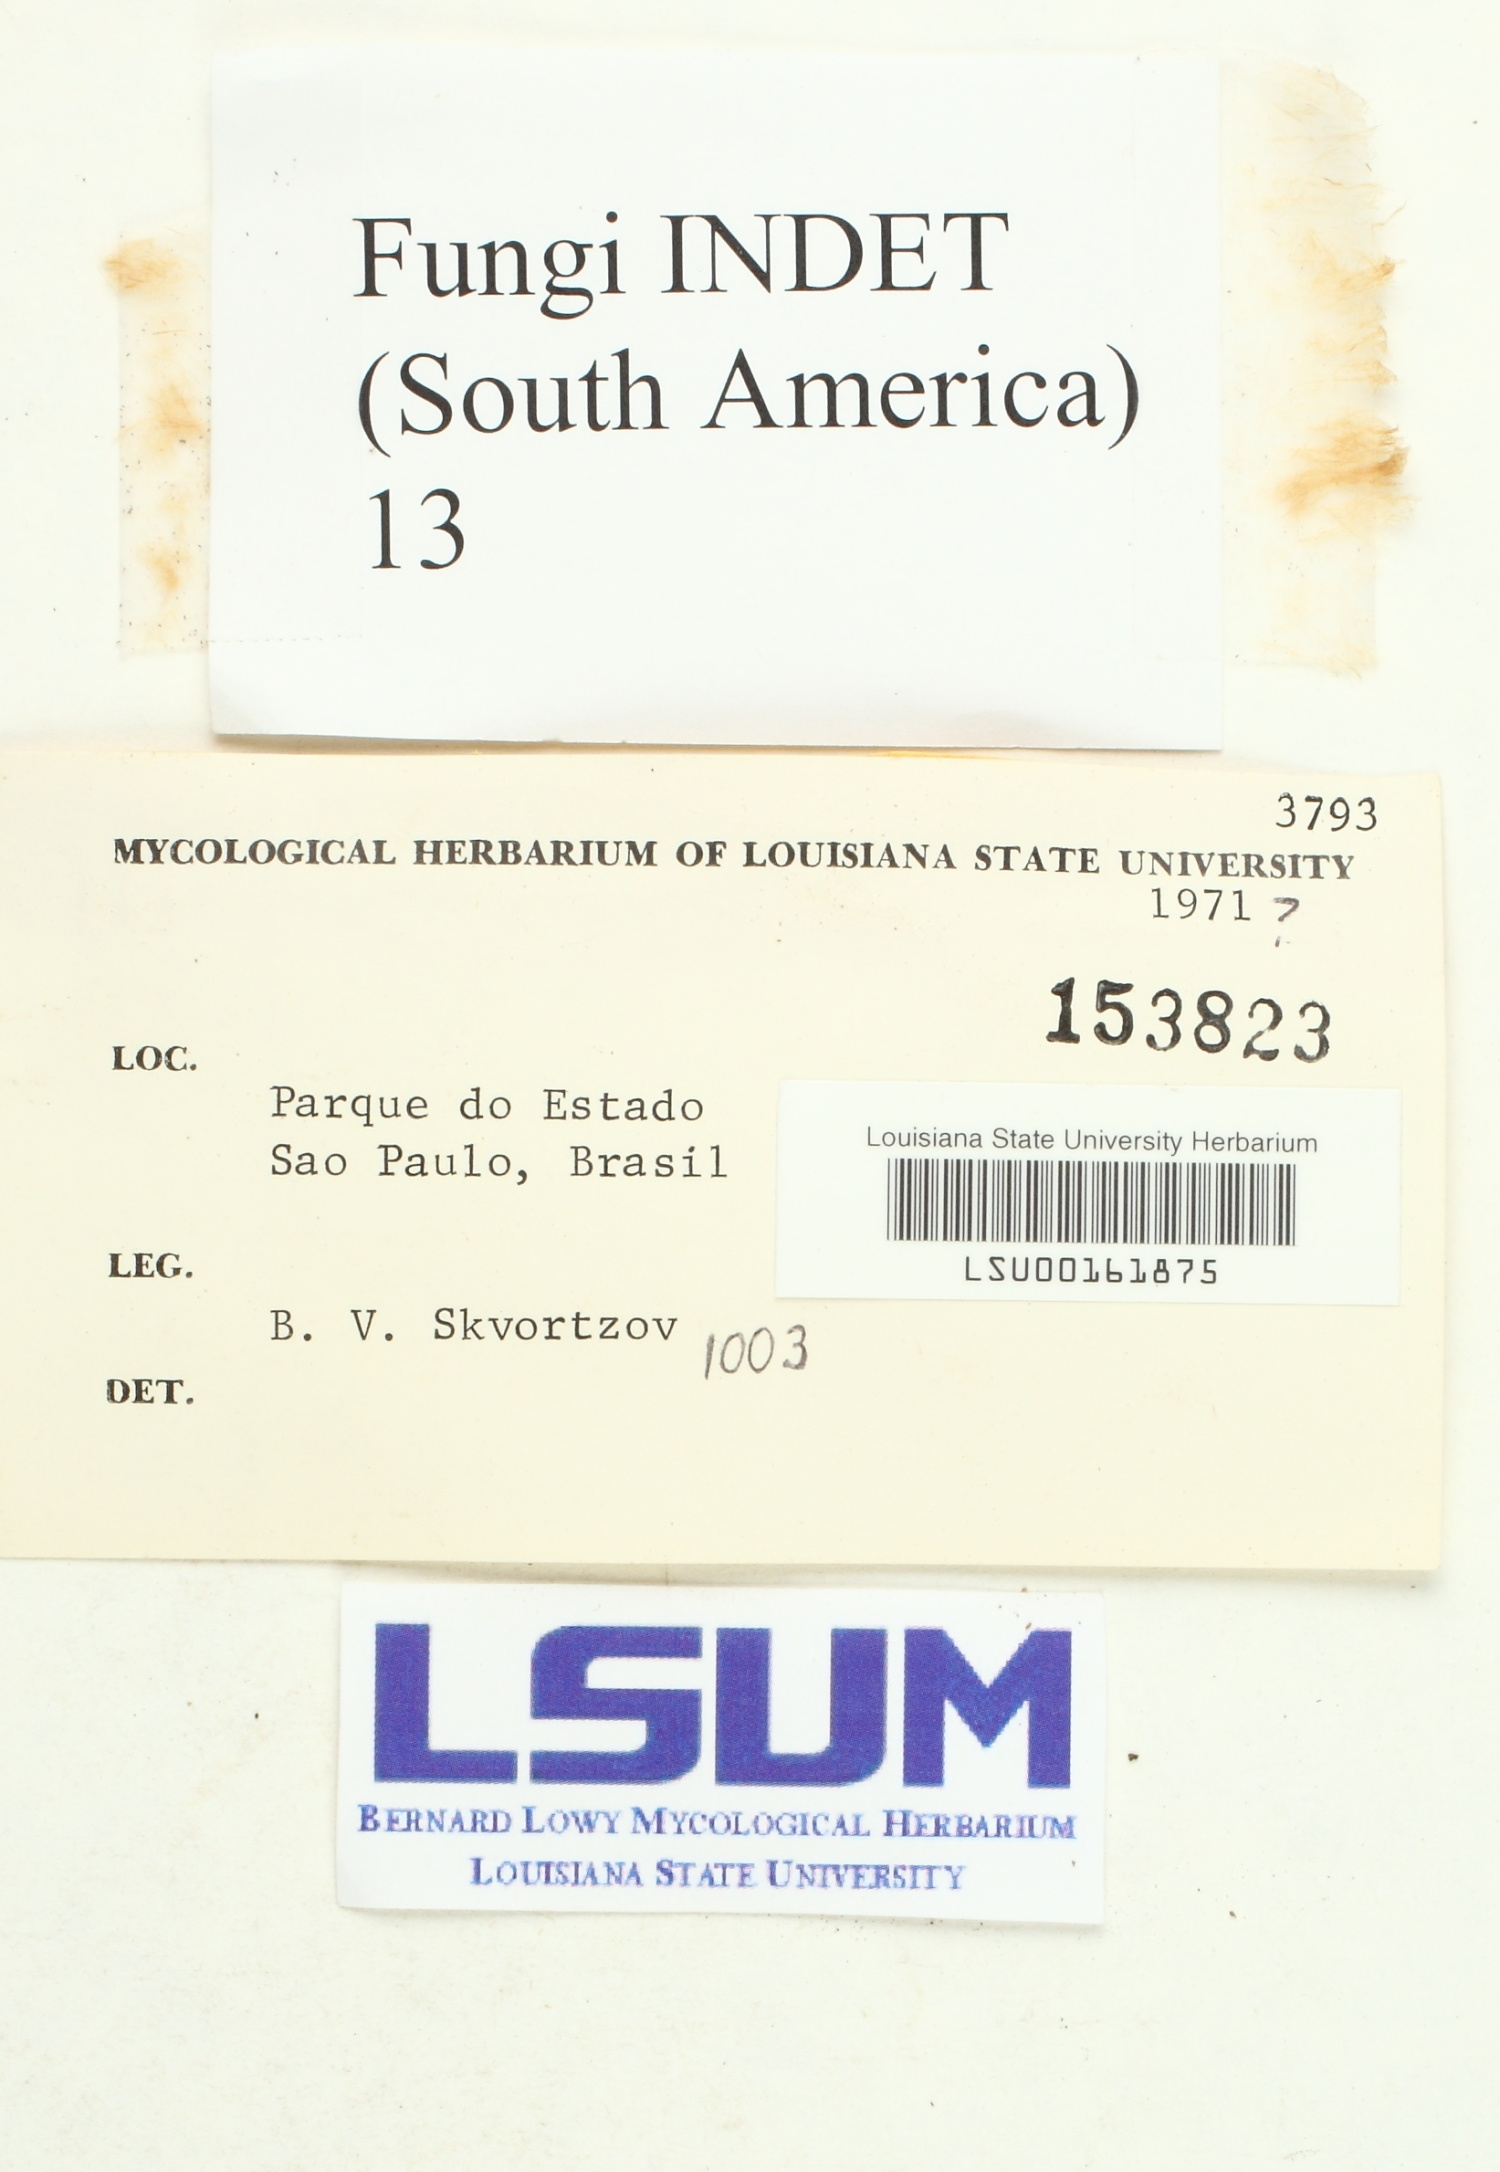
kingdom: Fungi
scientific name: Fungi
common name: Fungi
